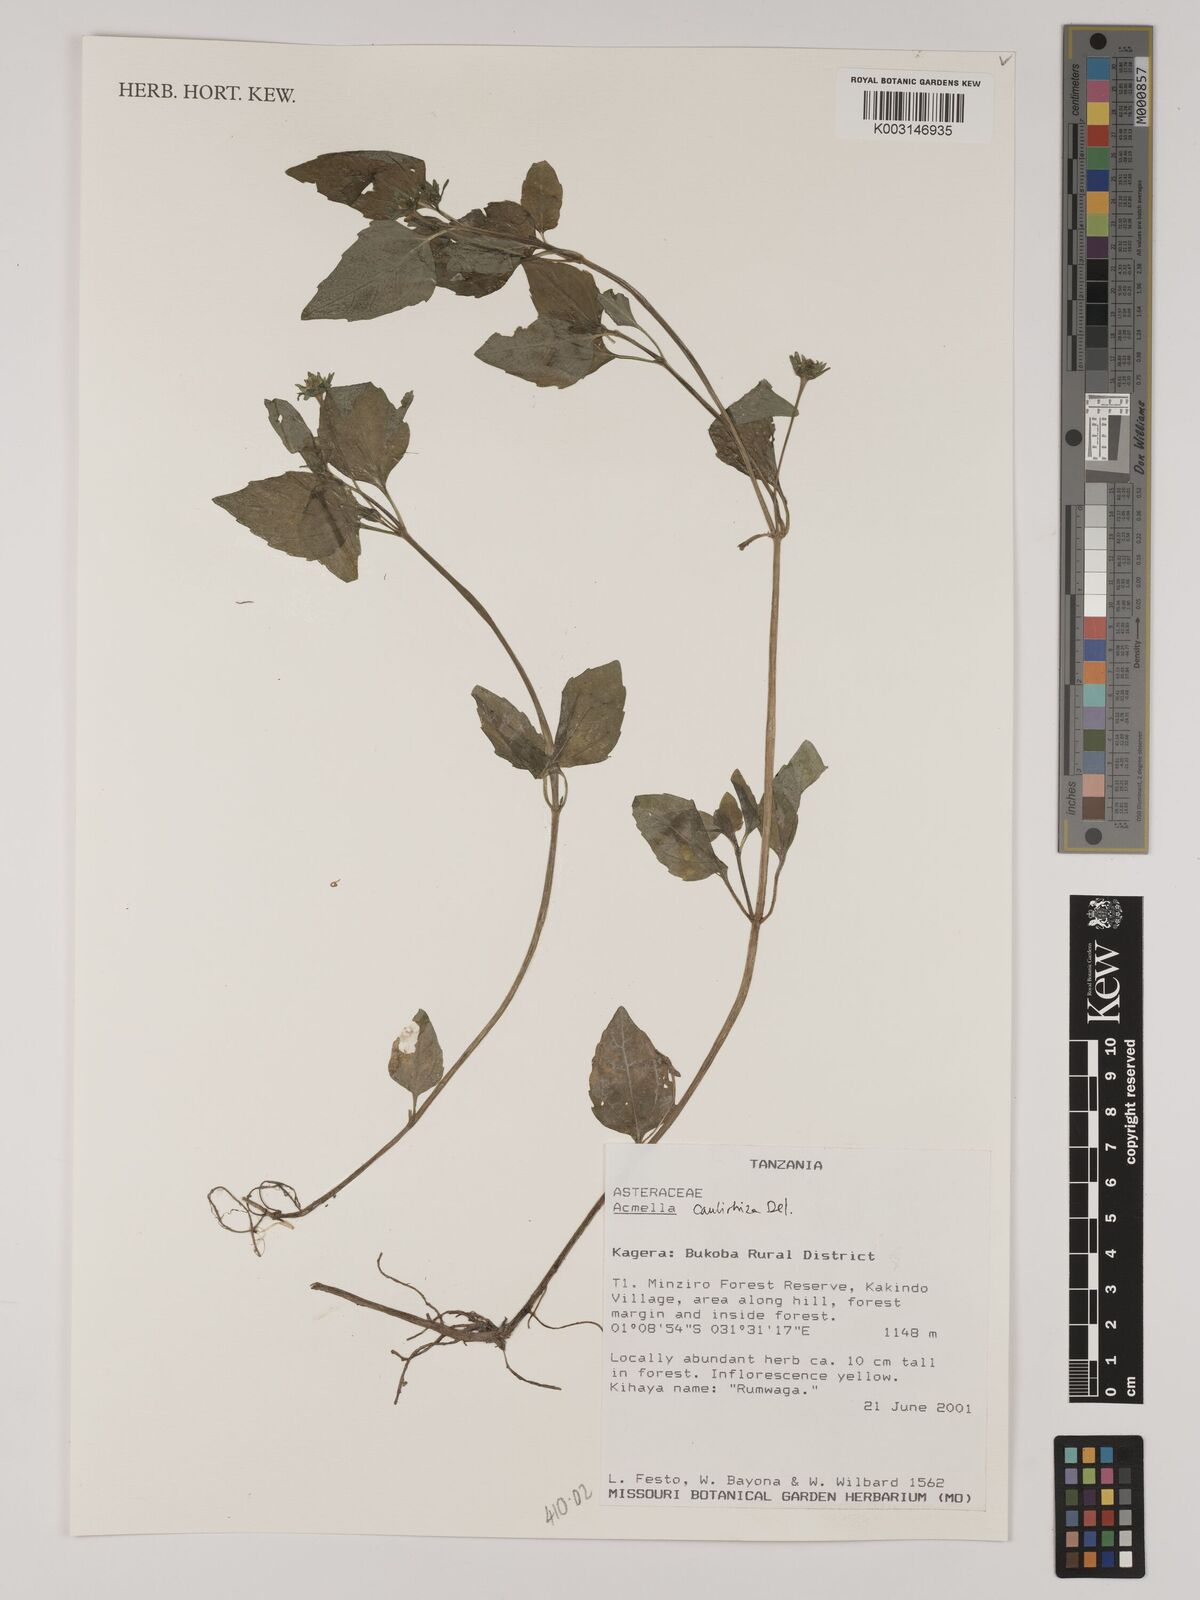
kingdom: Plantae
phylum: Tracheophyta
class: Magnoliopsida
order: Asterales
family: Asteraceae
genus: Acmella
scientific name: Acmella caulirhiza
